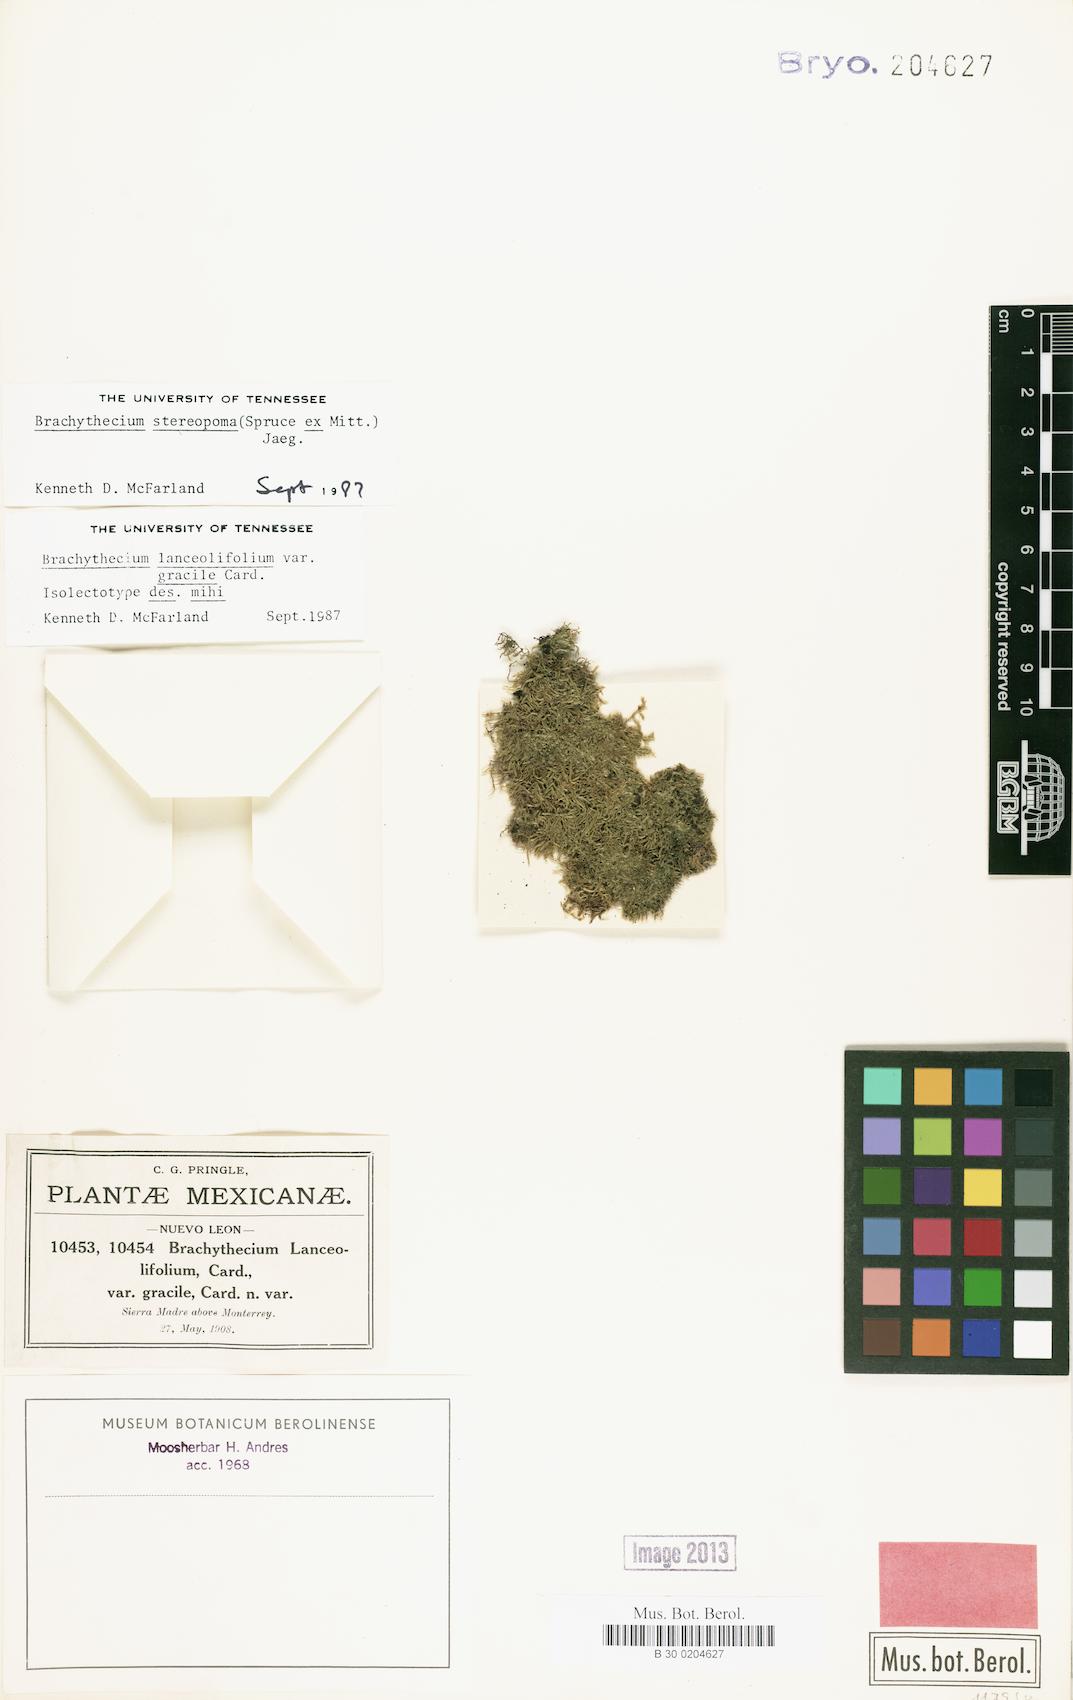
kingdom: Plantae
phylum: Bryophyta
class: Bryopsida
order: Hypnales
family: Brachytheciaceae
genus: Brachythecium
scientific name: Brachythecium ruderale
